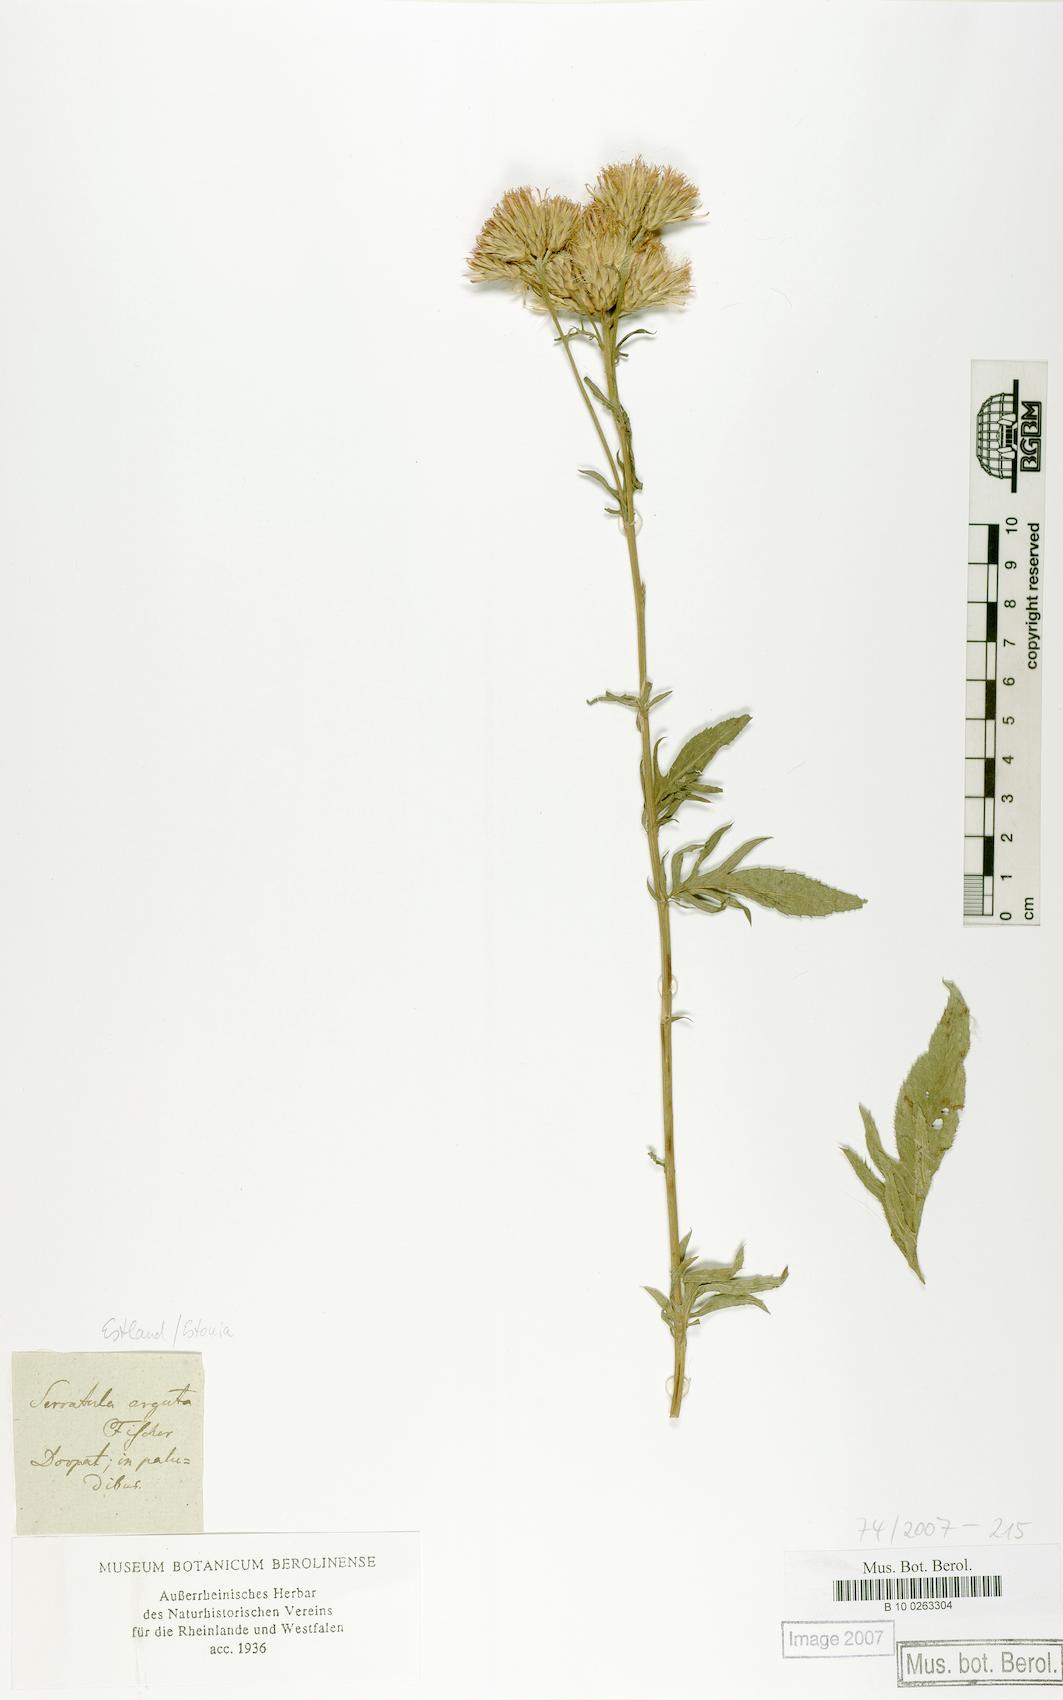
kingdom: Plantae
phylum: Tracheophyta
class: Magnoliopsida
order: Asterales
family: Asteraceae
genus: Serratula
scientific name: Serratula tinctoria
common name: Saw-wort
